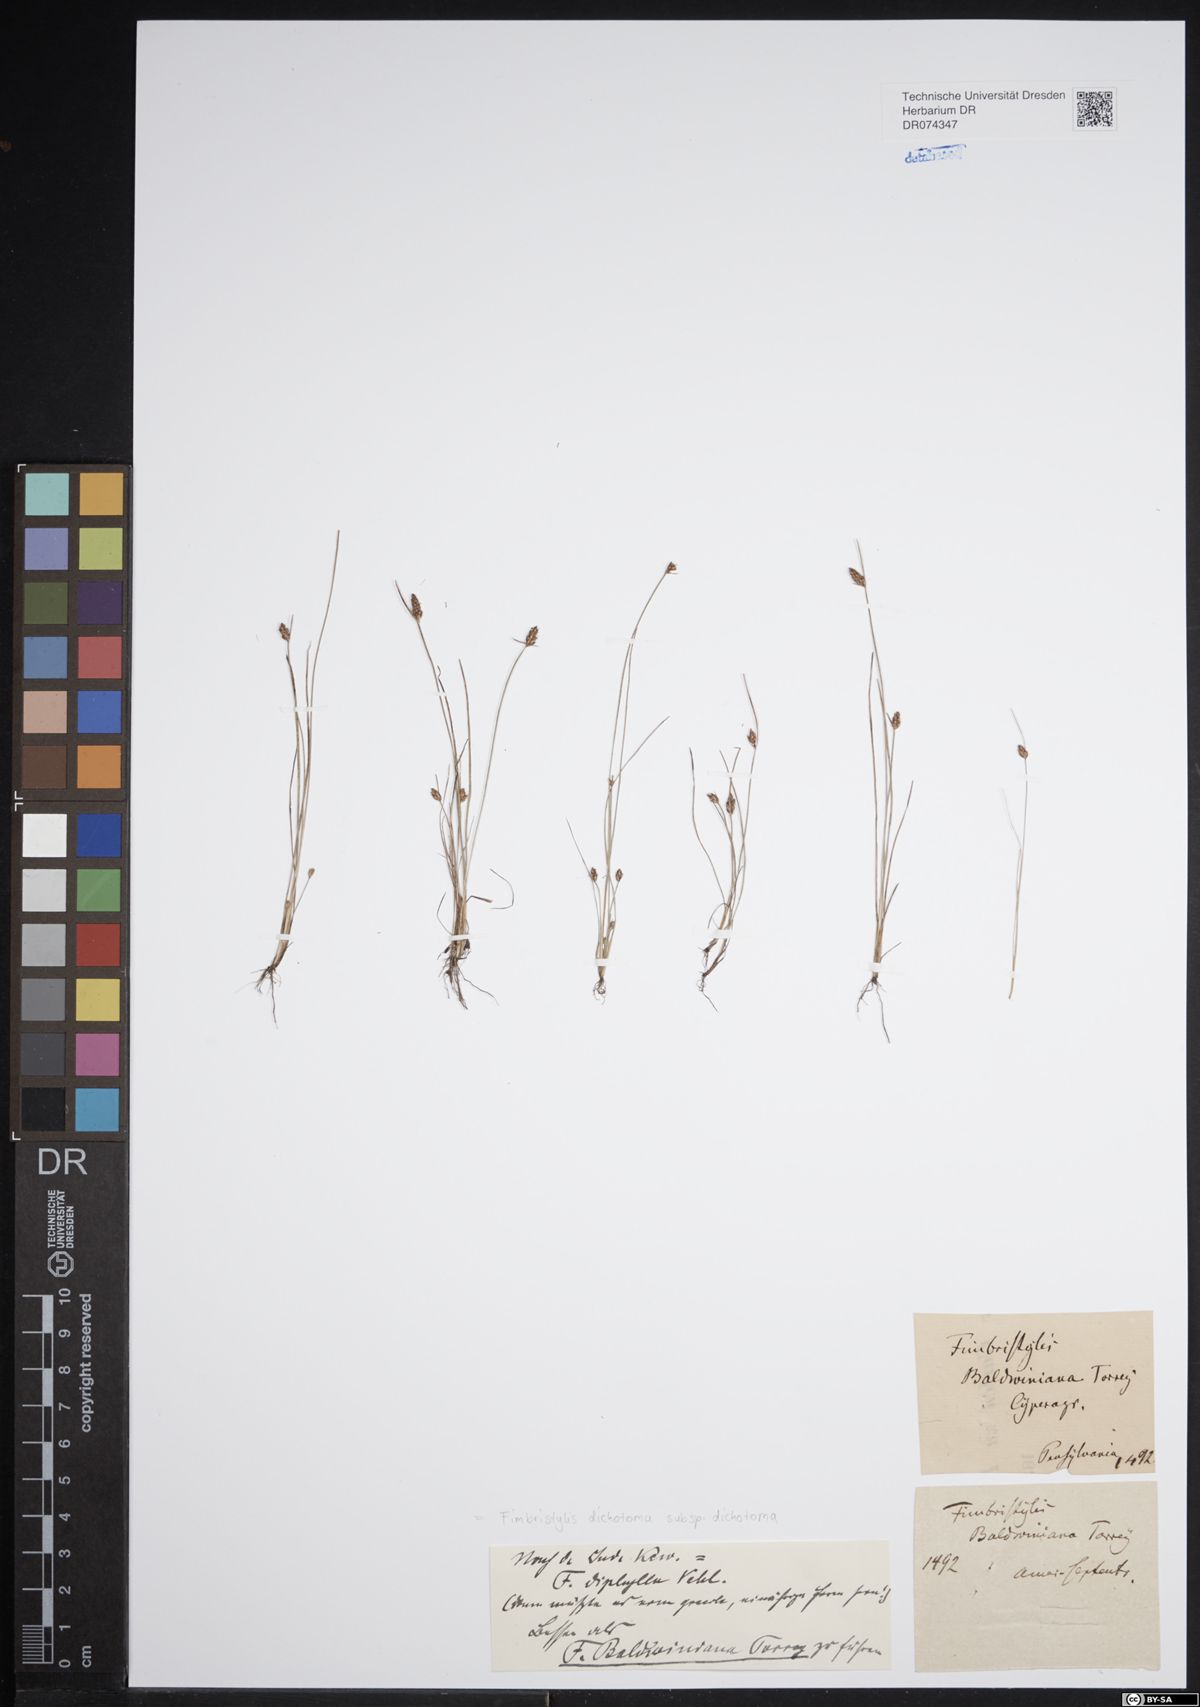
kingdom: Plantae
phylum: Tracheophyta
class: Liliopsida
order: Poales
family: Cyperaceae
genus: Fimbristylis
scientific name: Fimbristylis dichotoma
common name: Forked fimbry
